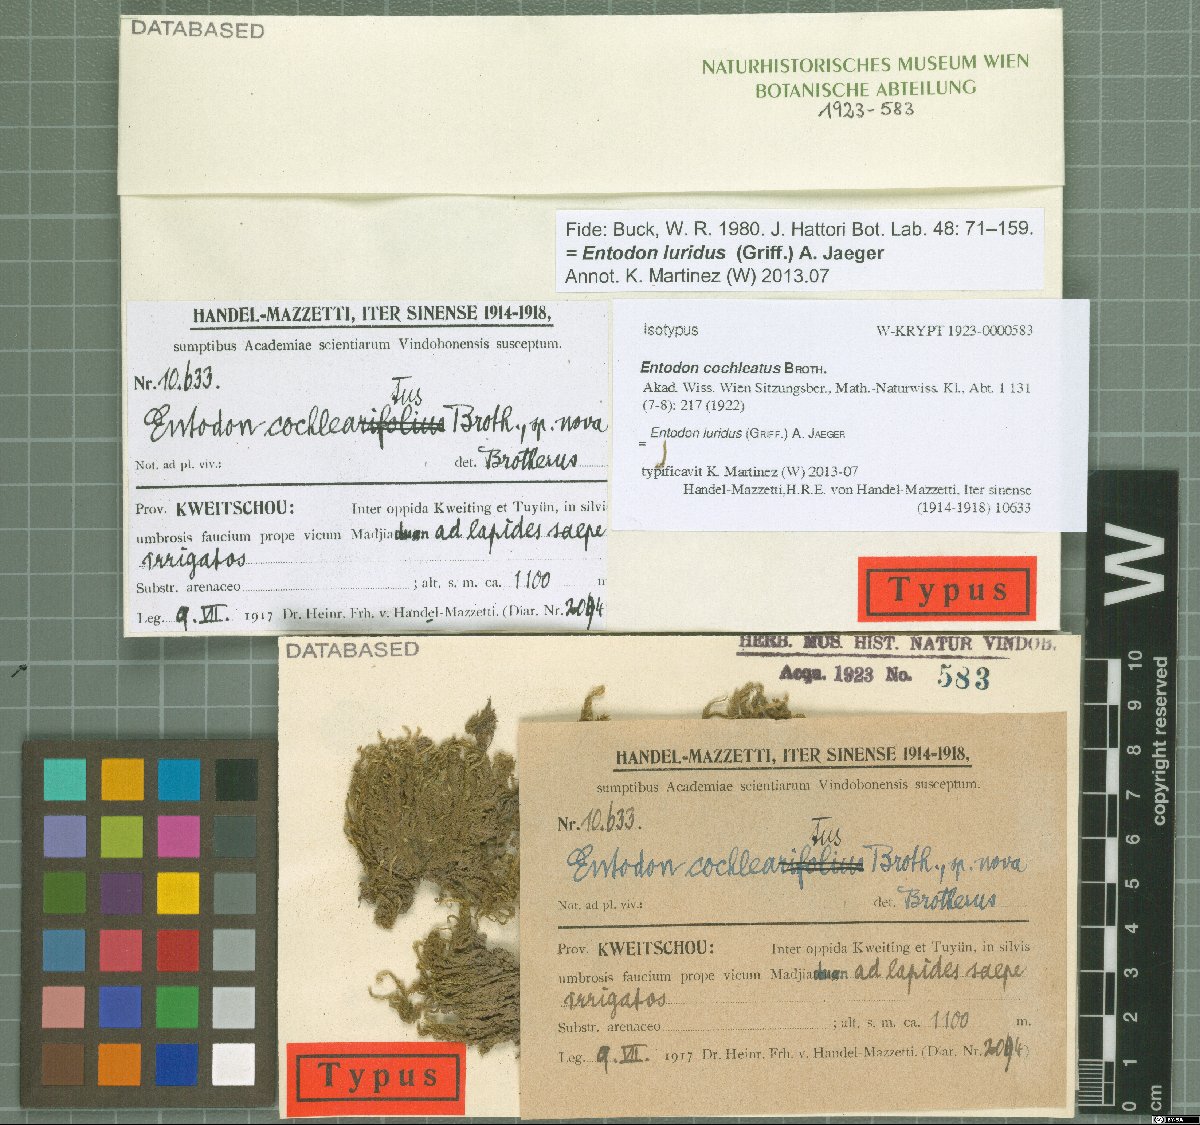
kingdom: Plantae
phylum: Bryophyta
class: Bryopsida
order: Hypnales
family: Entodontaceae
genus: Entodon
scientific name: Entodon luridus
